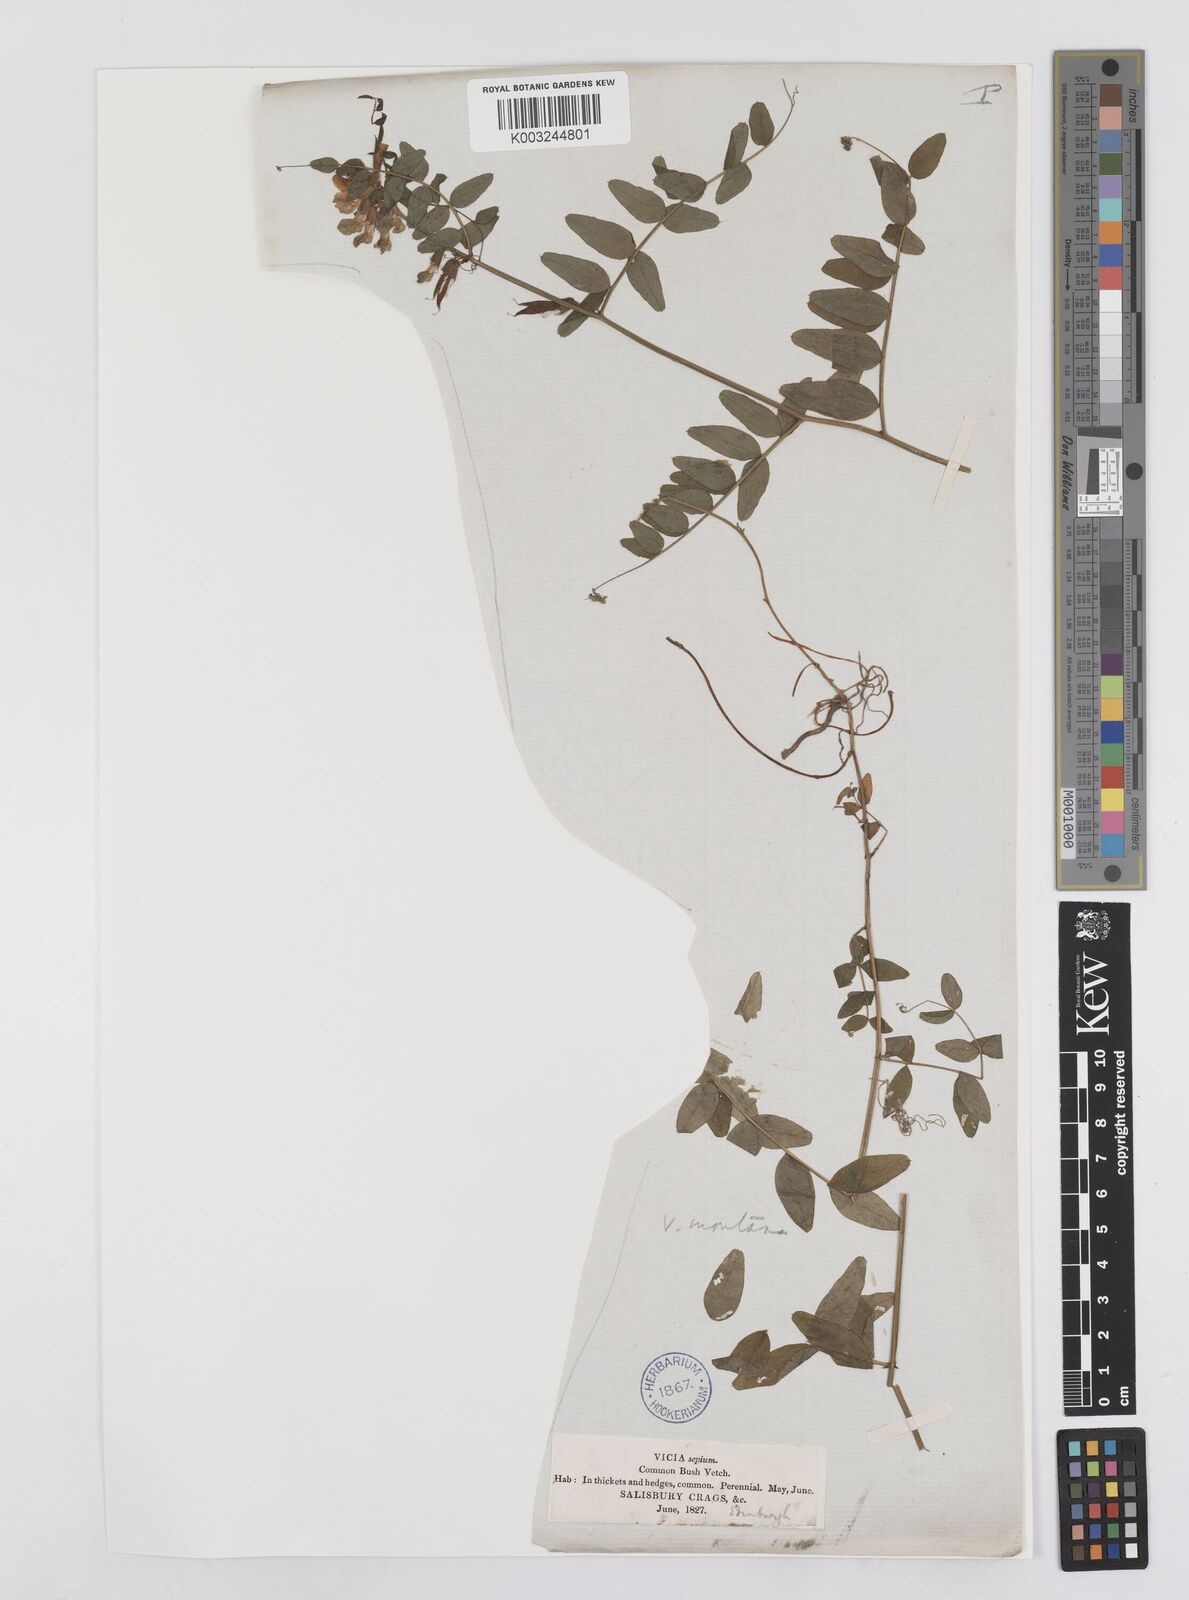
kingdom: Plantae
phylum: Tracheophyta
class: Magnoliopsida
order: Fabales
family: Fabaceae
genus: Vicia
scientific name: Vicia sepium
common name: Bush vetch
